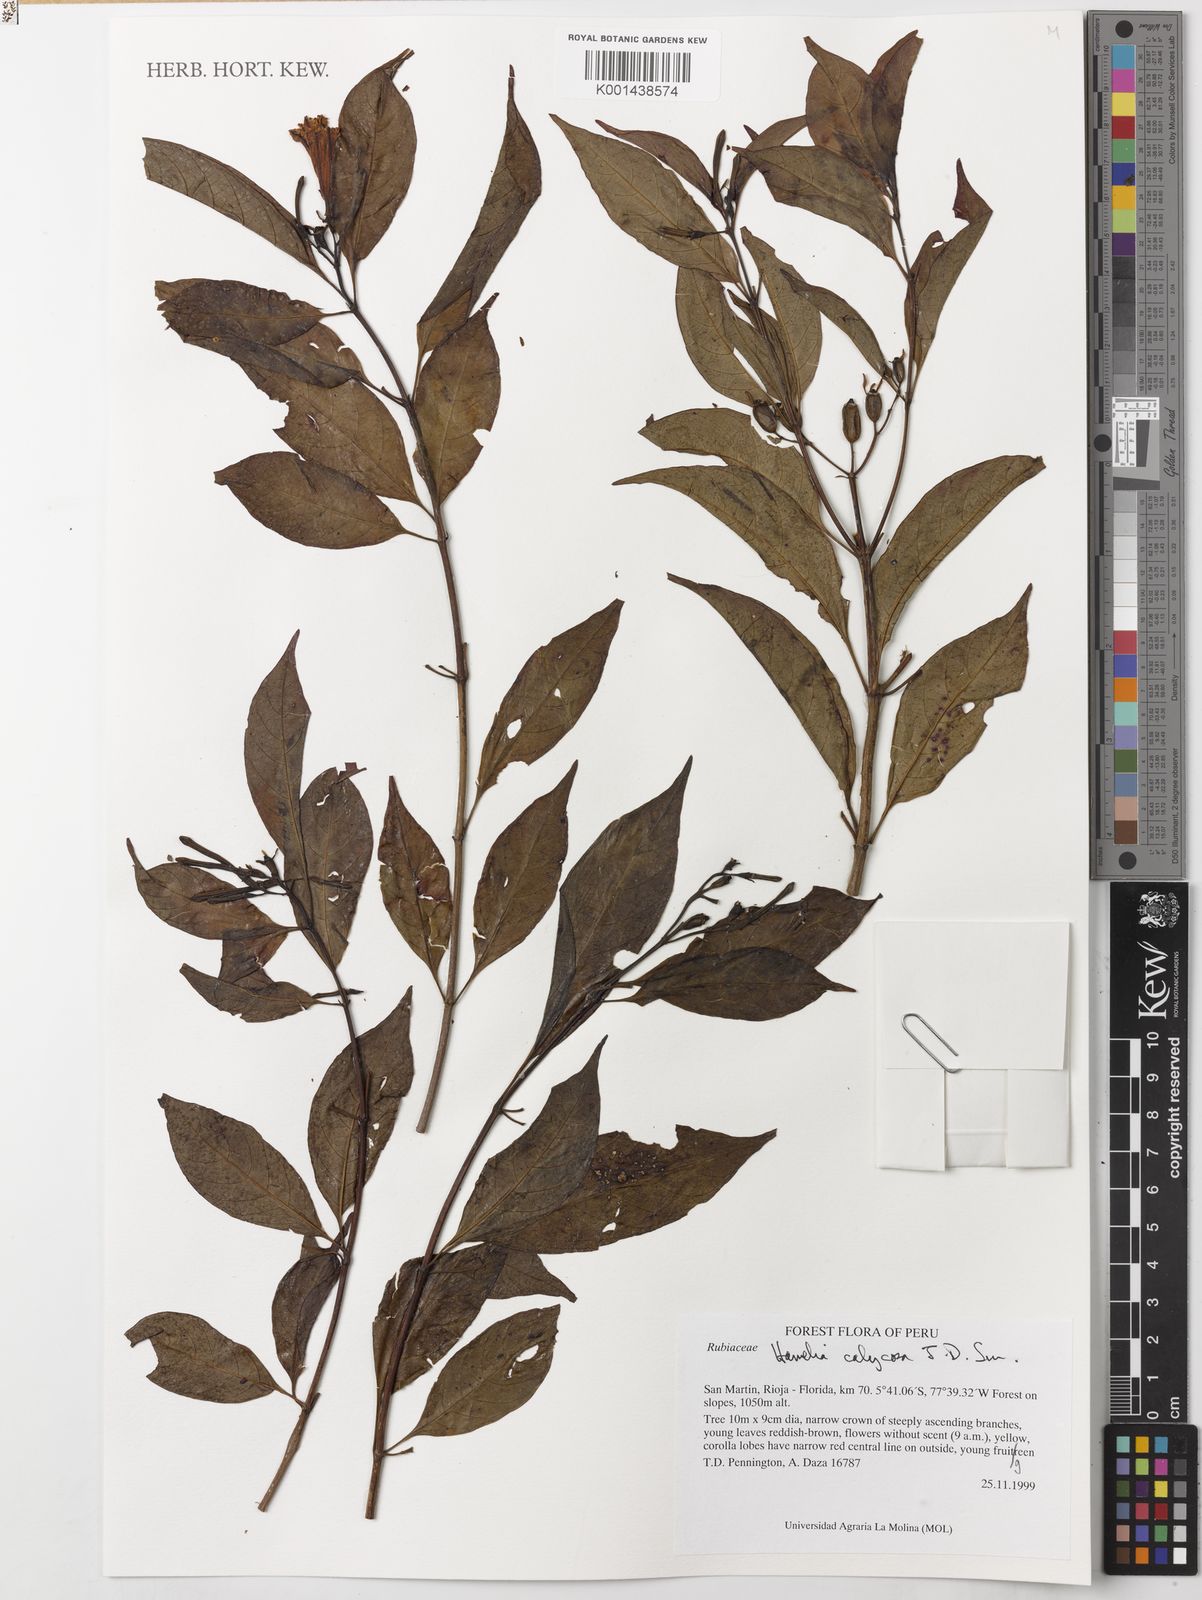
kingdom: Plantae
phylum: Tracheophyta
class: Magnoliopsida
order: Gentianales
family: Rubiaceae
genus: Hamelia
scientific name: Hamelia calycosa
